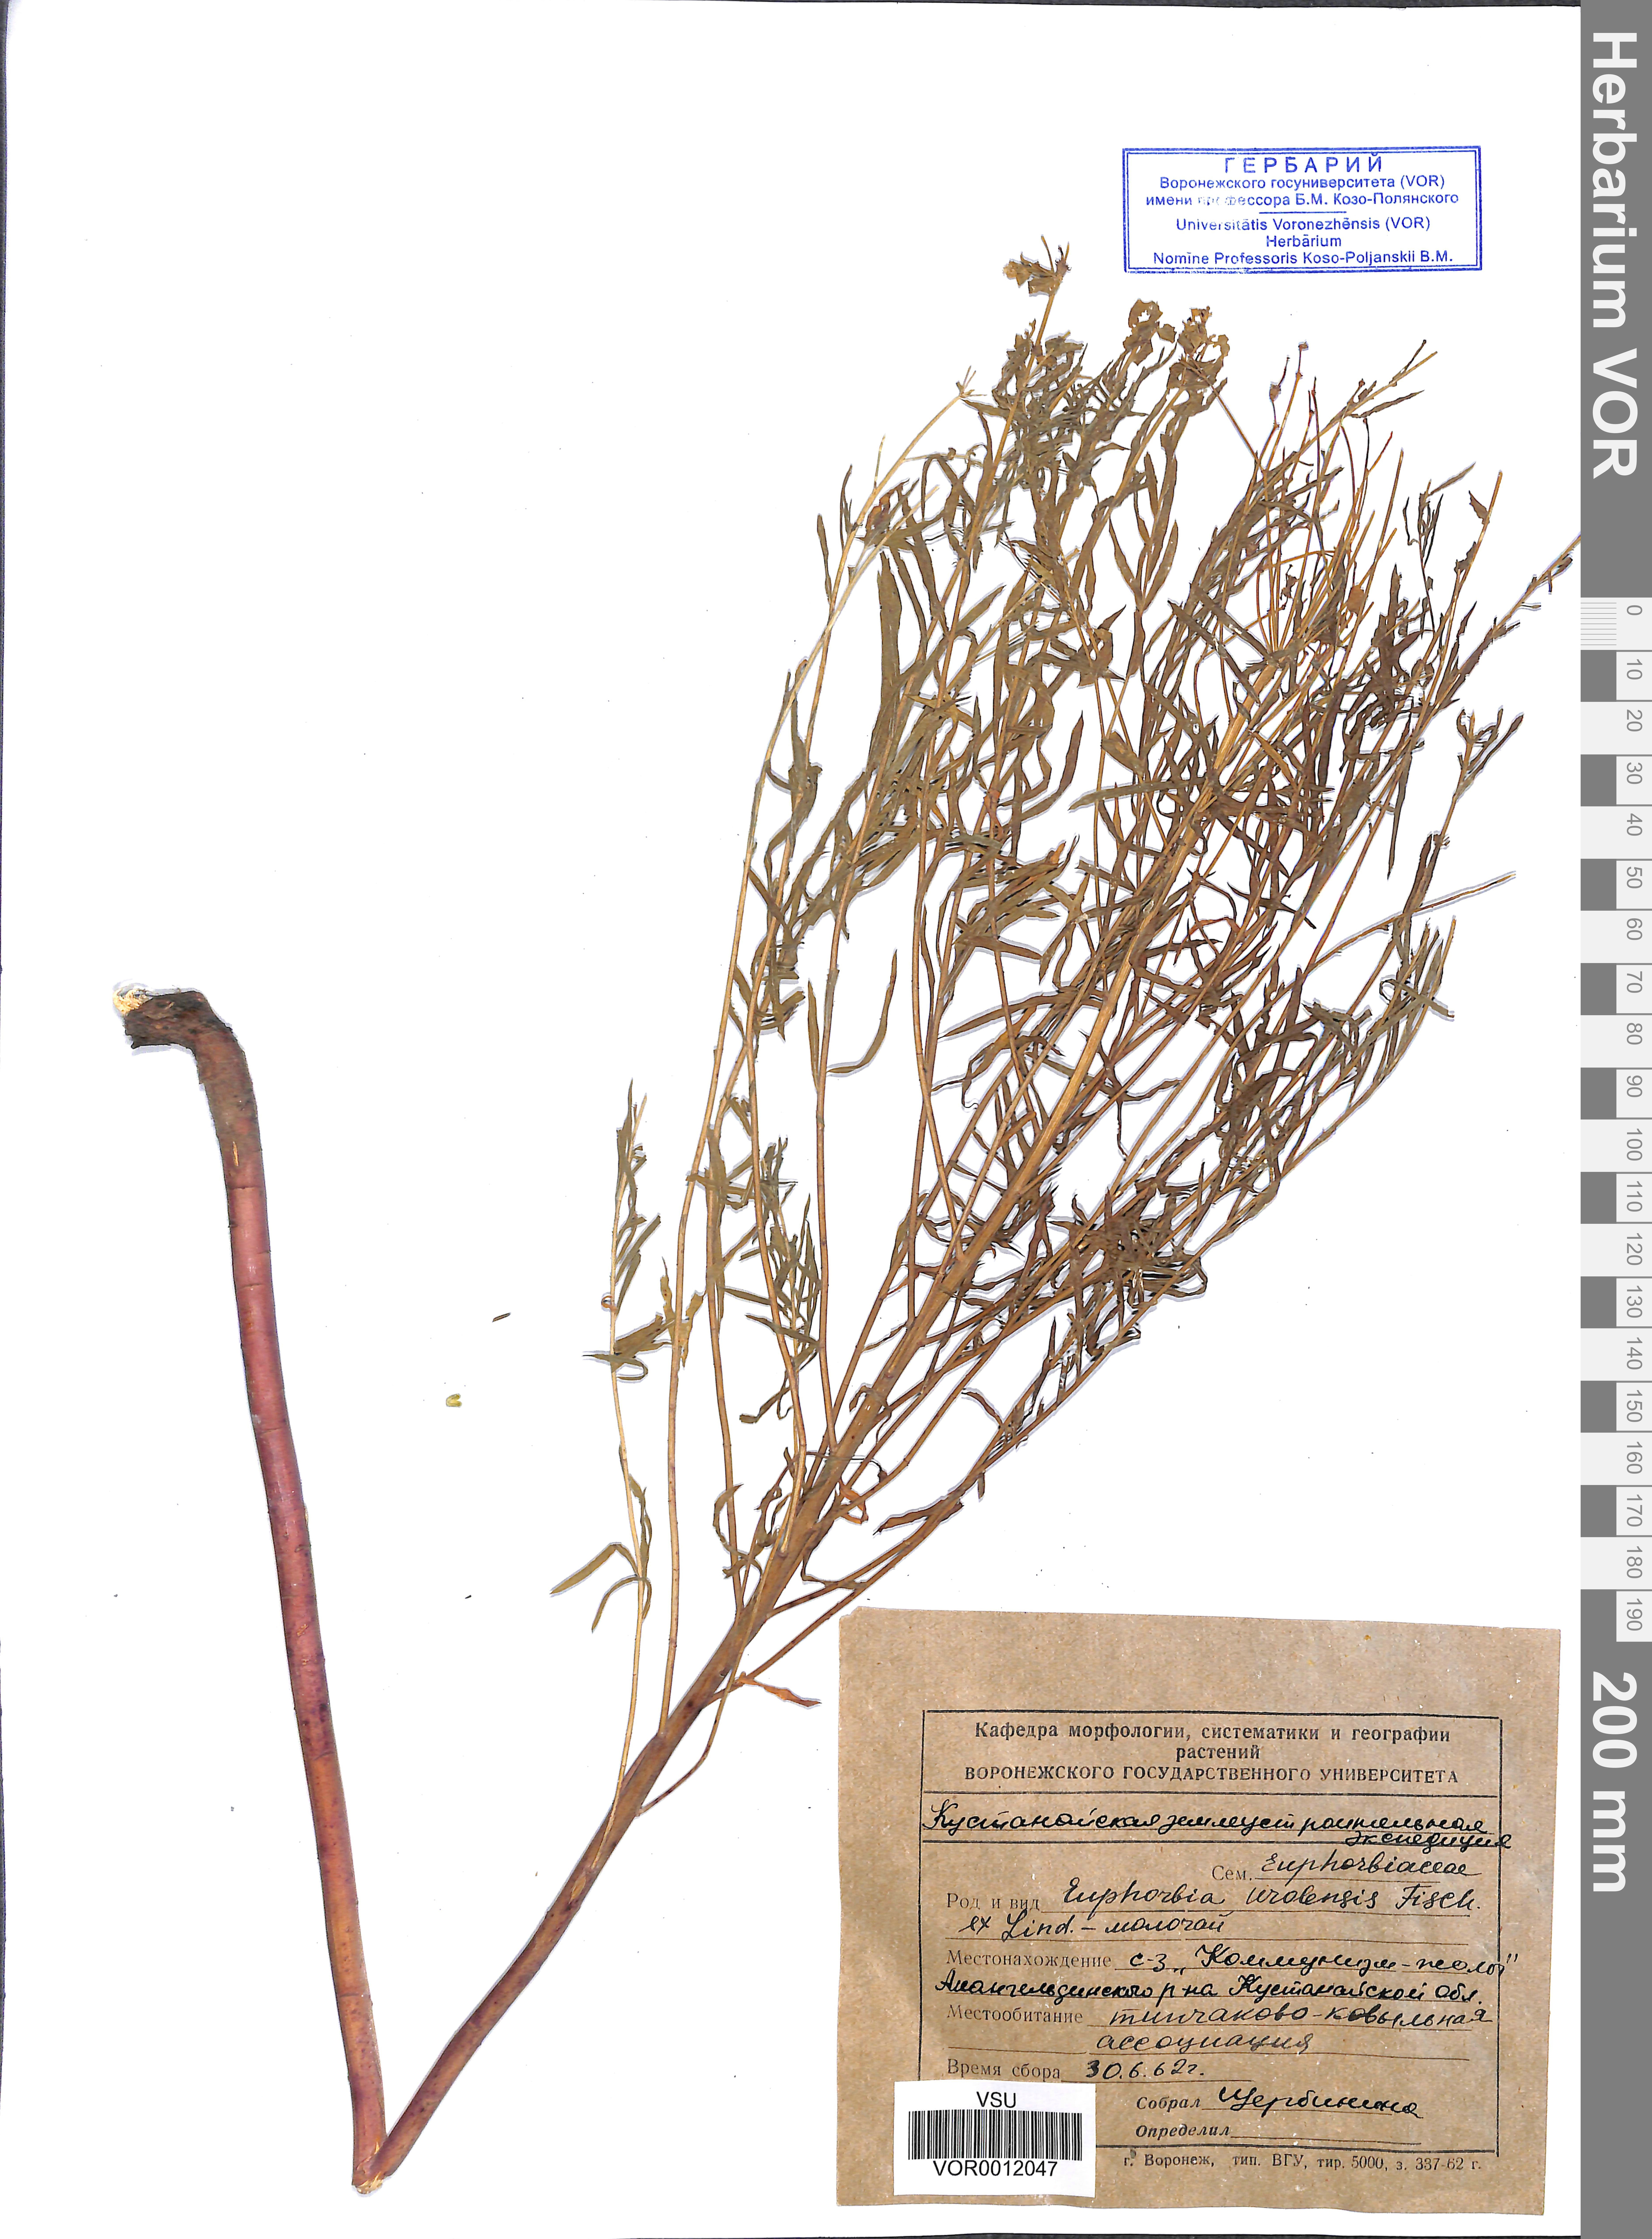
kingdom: Plantae
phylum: Tracheophyta
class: Magnoliopsida
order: Malpighiales
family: Euphorbiaceae
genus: Euphorbia
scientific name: Euphorbia uralensis
